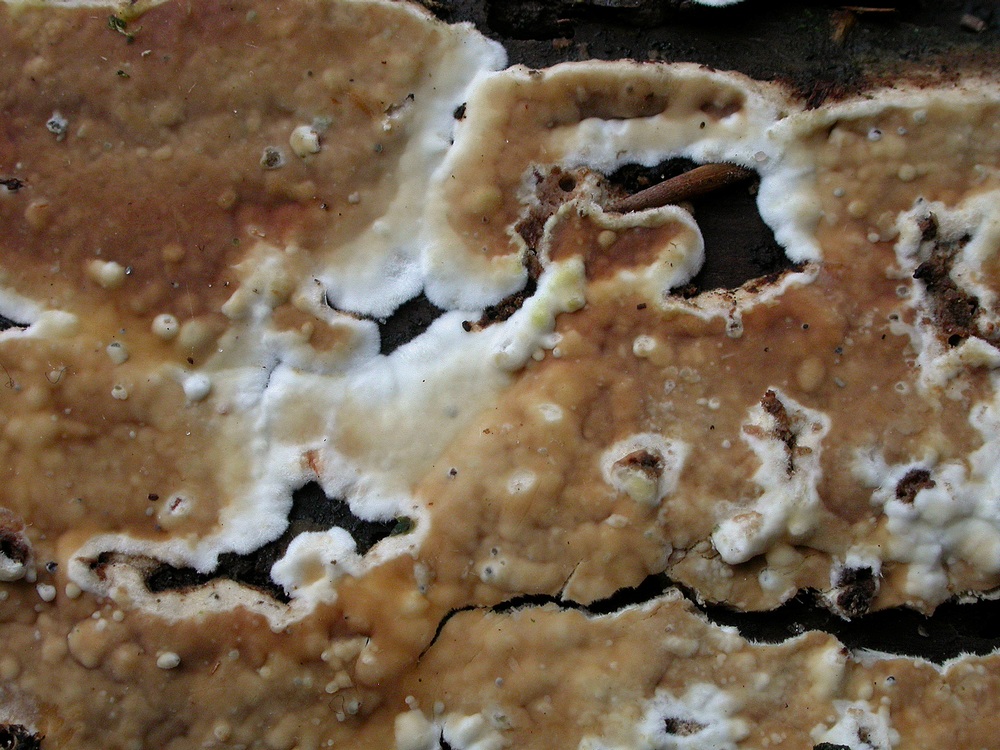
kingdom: Fungi
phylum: Basidiomycota
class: Agaricomycetes
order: Boletales
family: Coniophoraceae
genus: Penttilamyces
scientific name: Penttilamyces olivascens
